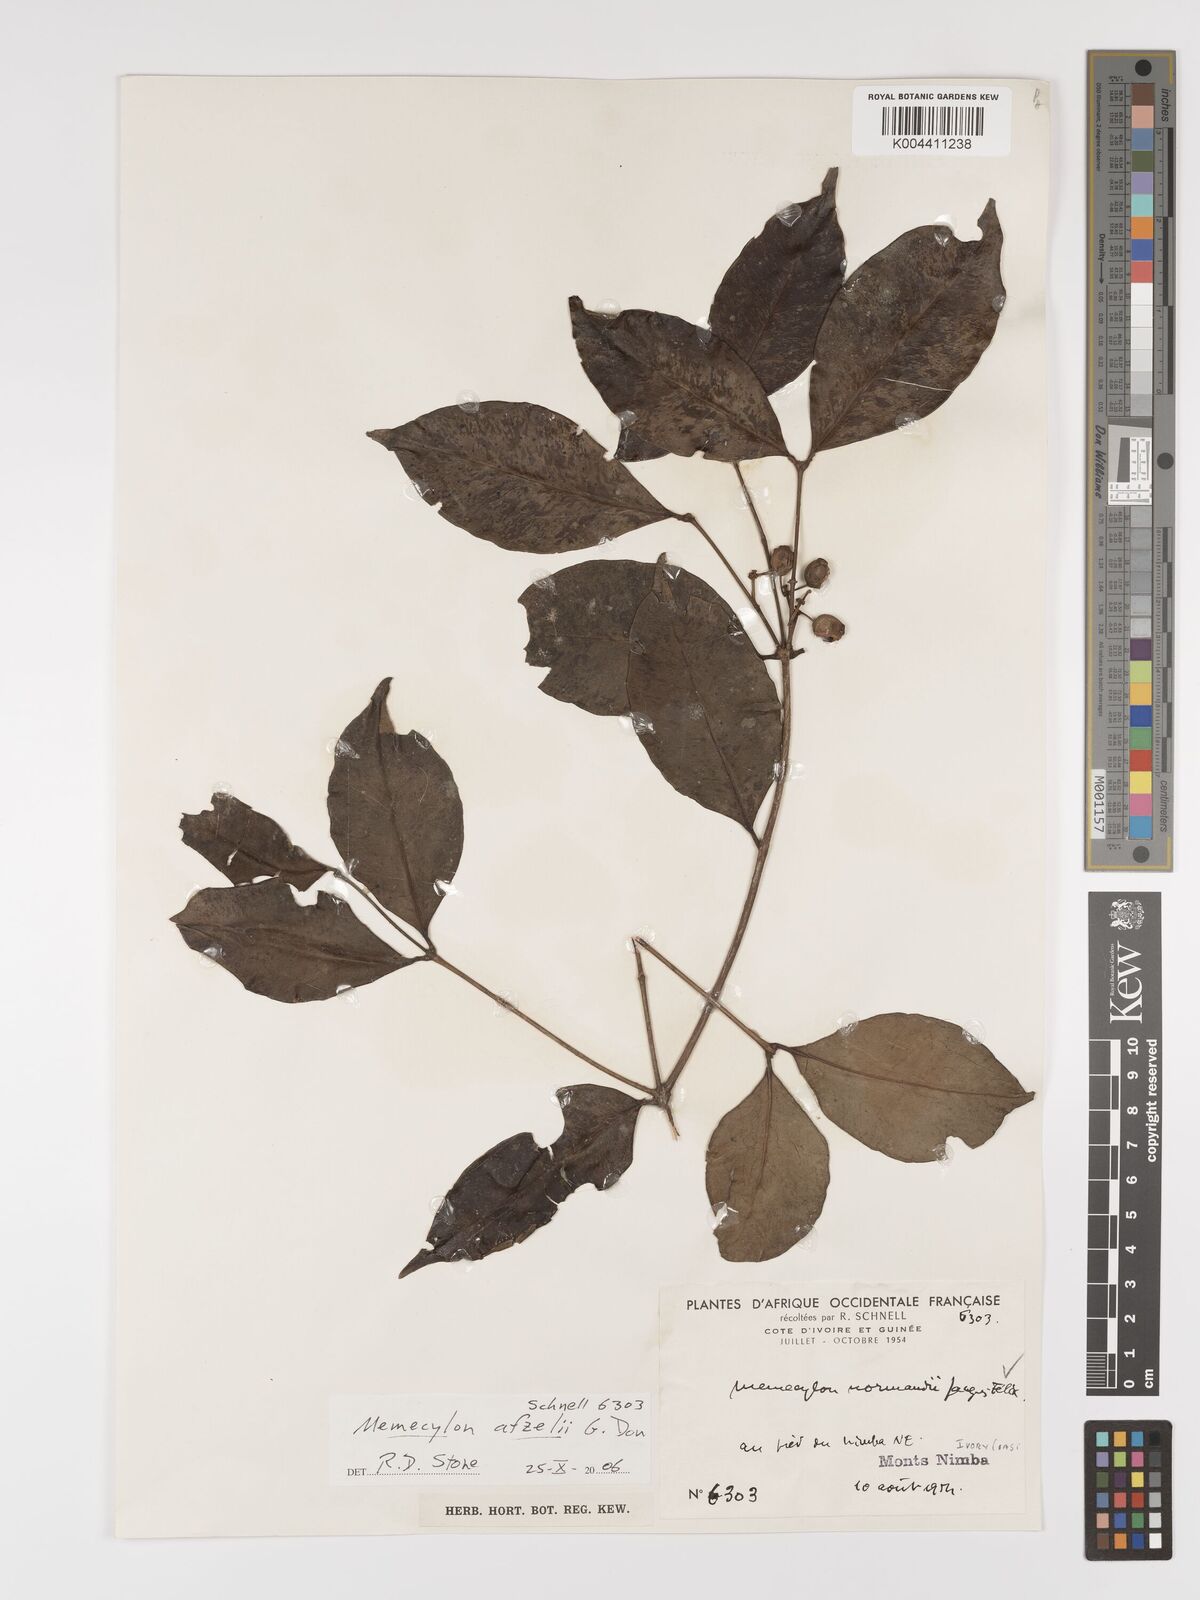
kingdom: Plantae
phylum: Tracheophyta
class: Magnoliopsida
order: Myrtales
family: Melastomataceae
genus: Memecylon
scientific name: Memecylon afzelii
